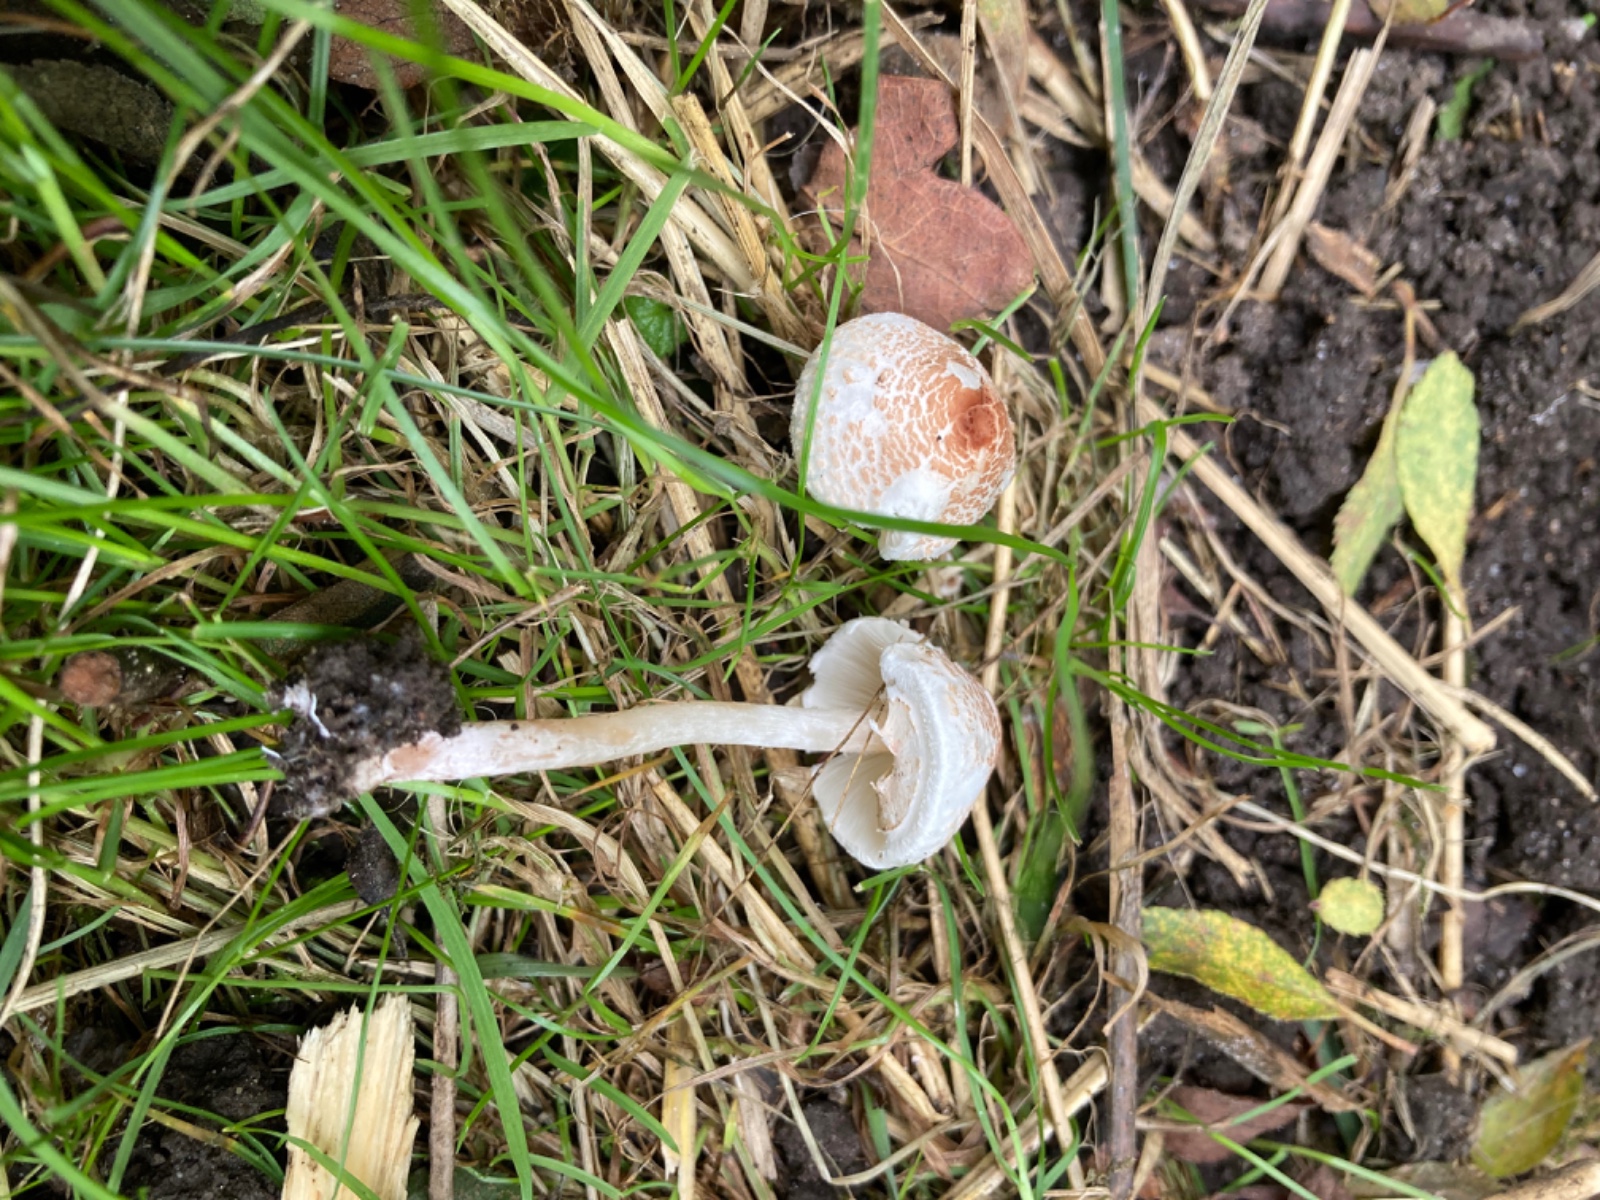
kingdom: Fungi
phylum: Basidiomycota
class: Agaricomycetes
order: Agaricales
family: Agaricaceae
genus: Lepiota
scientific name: Lepiota cristata
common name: stinkende parasolhat
